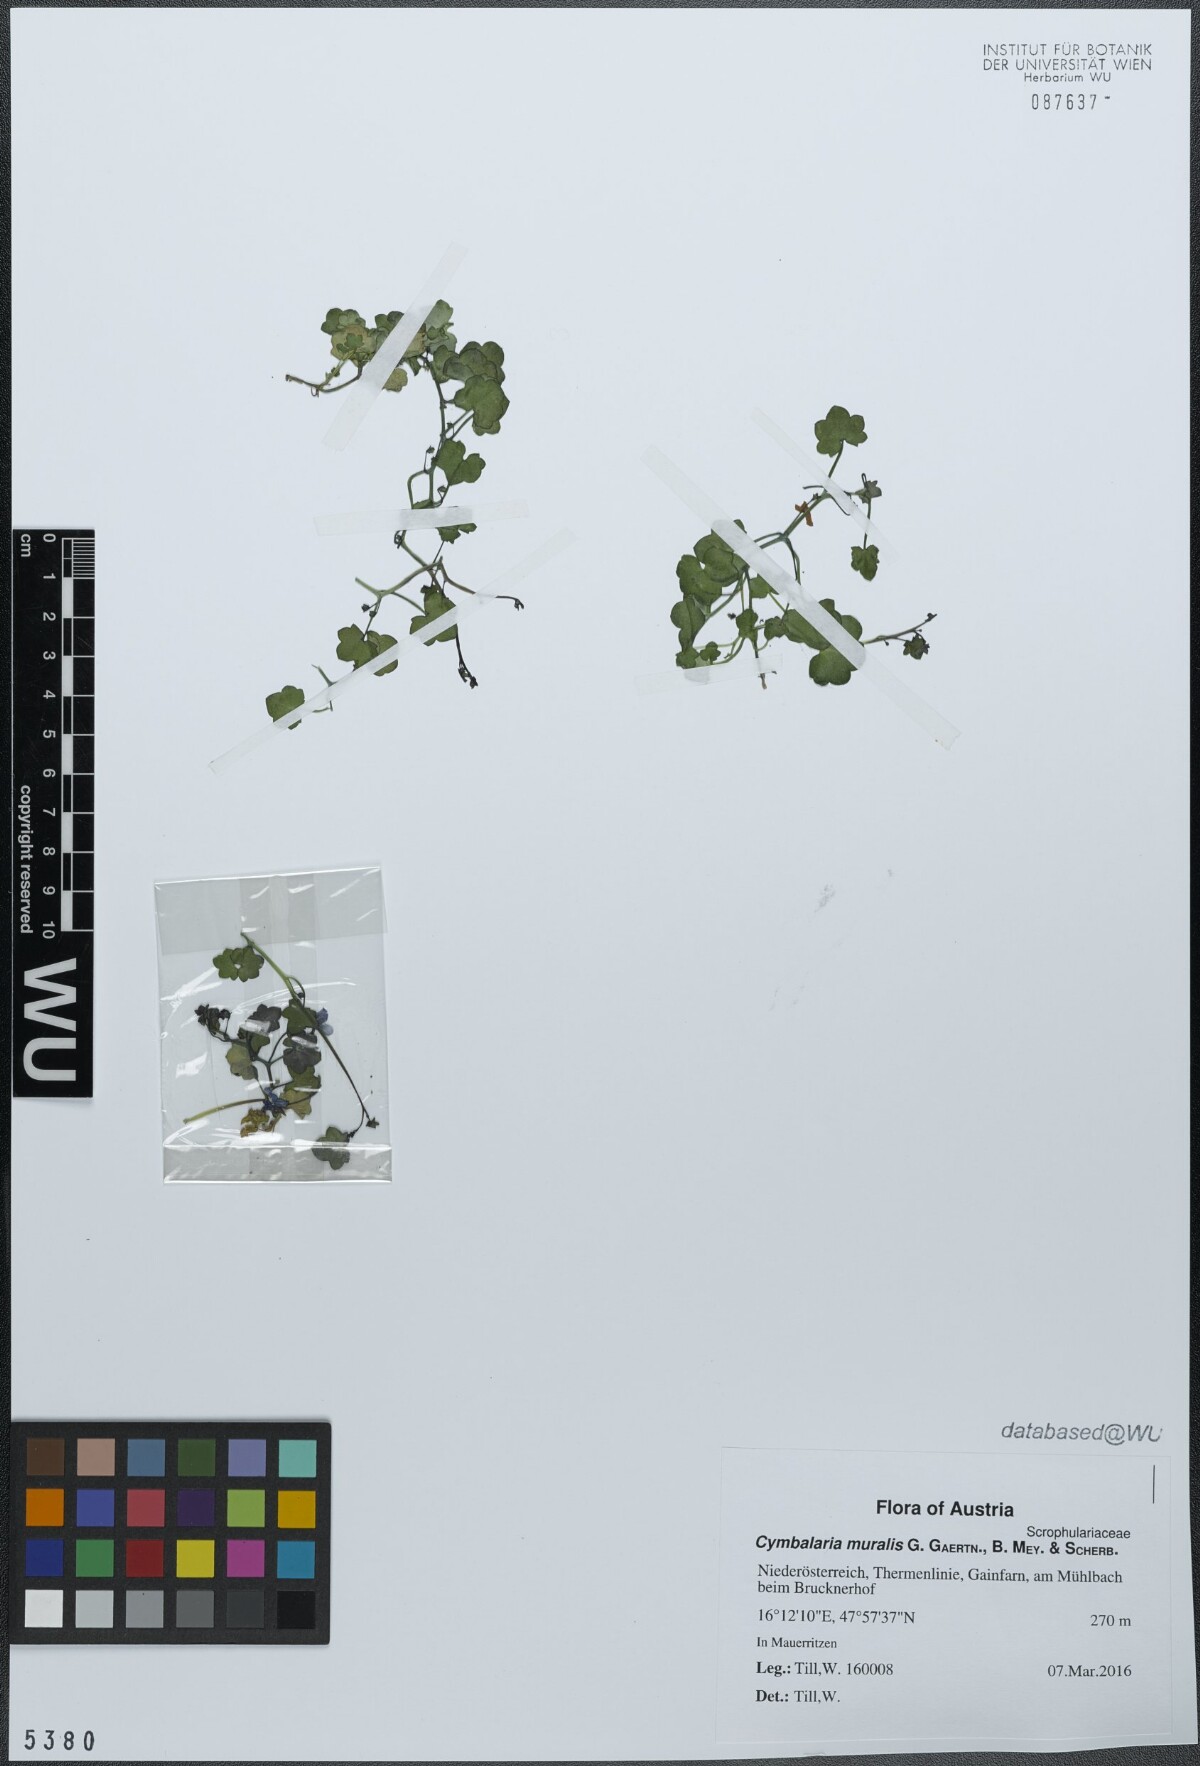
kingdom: Plantae
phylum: Tracheophyta
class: Magnoliopsida
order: Lamiales
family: Plantaginaceae
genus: Cymbalaria
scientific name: Cymbalaria muralis
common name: Ivy-leaved toadflax
